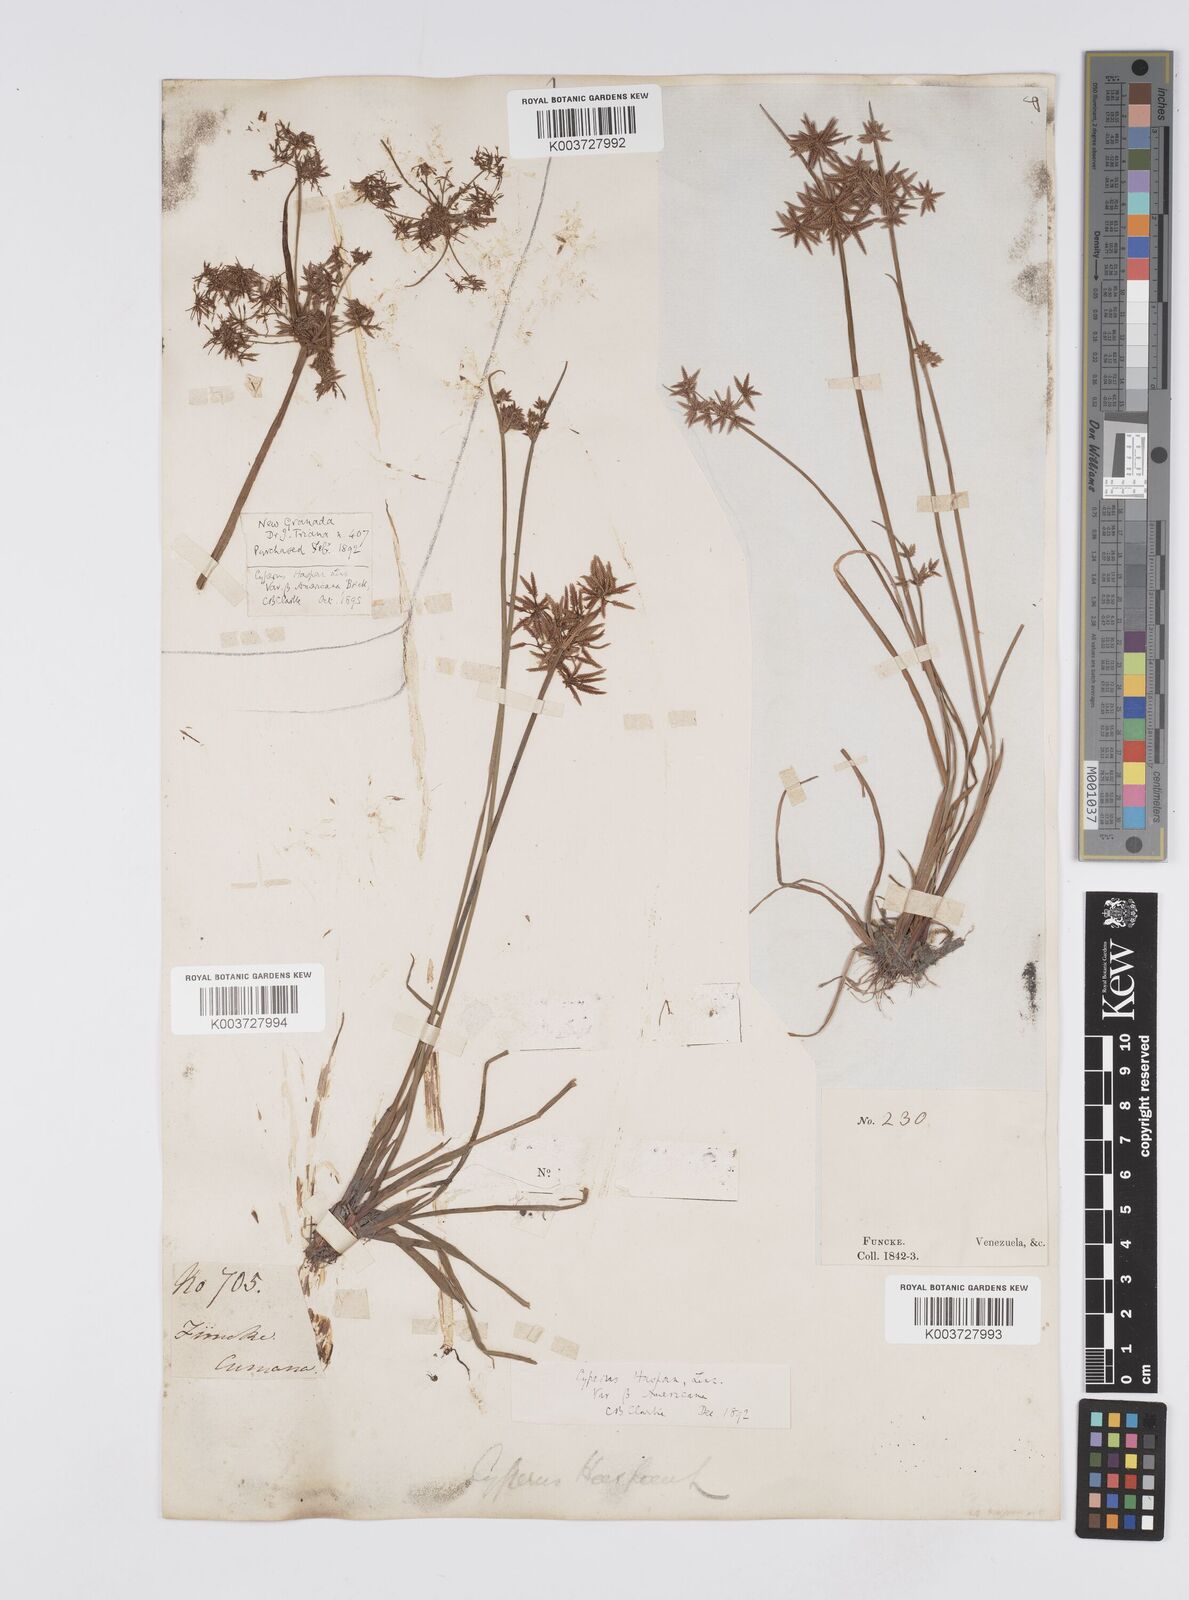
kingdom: Plantae
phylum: Tracheophyta
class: Liliopsida
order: Poales
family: Cyperaceae
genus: Cyperus
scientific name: Cyperus haspan
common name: Haspan flatsedge
